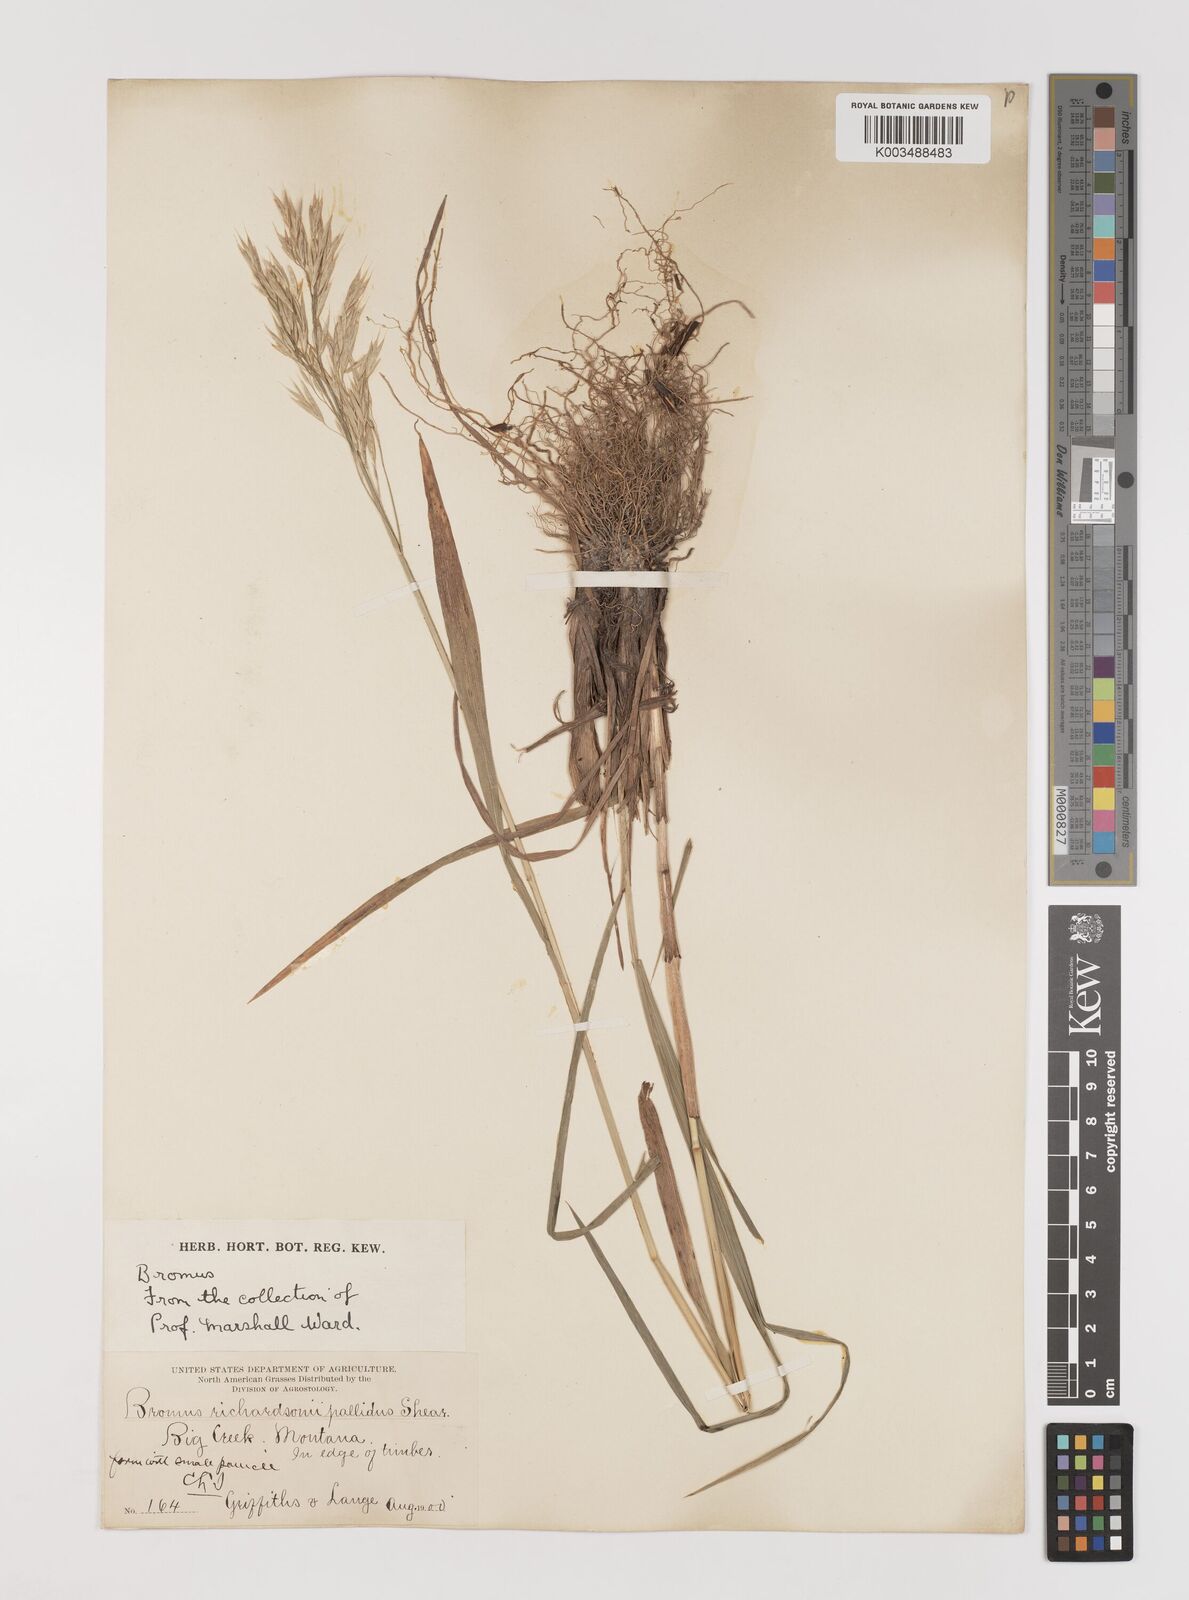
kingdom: Plantae
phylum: Tracheophyta
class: Liliopsida
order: Poales
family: Poaceae
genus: Bromus
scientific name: Bromus richardsonii
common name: Richardson's brome
